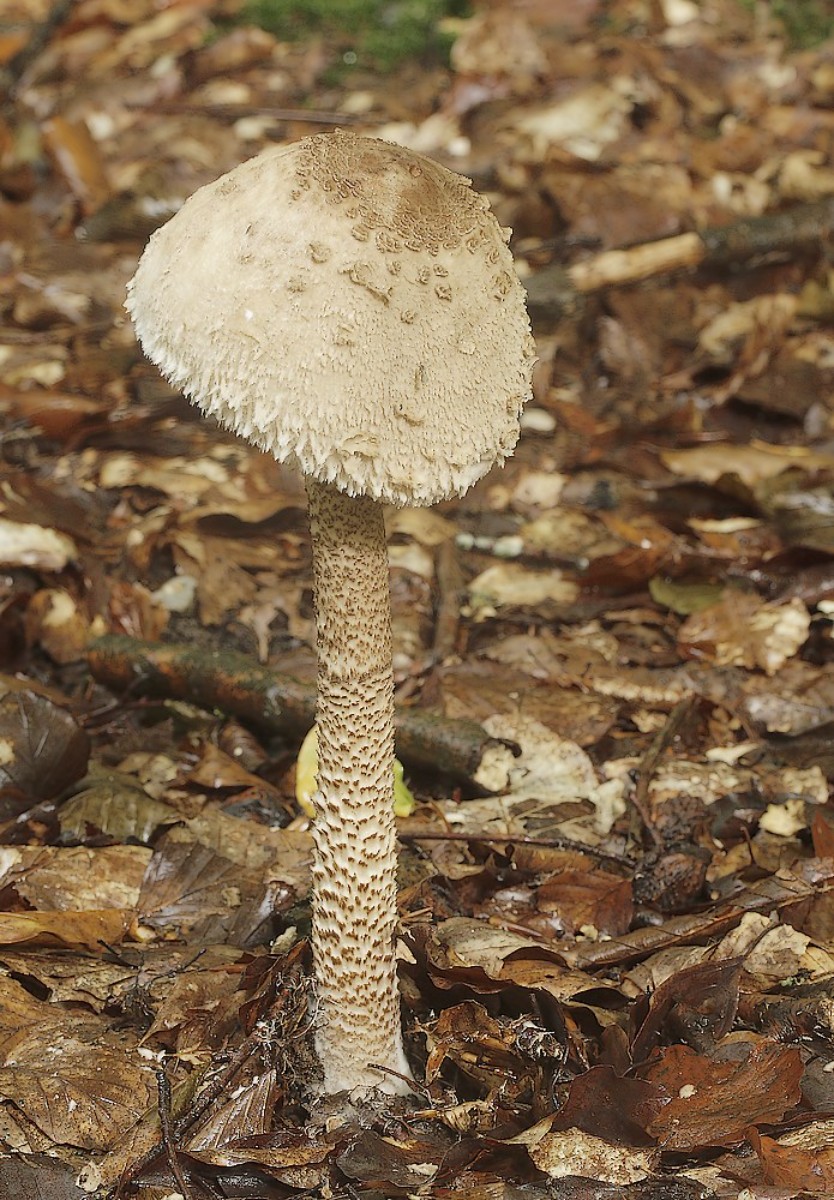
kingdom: Fungi
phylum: Basidiomycota
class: Agaricomycetes
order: Agaricales
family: Agaricaceae
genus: Macrolepiota
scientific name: Macrolepiota
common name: kæmpeparasolhat
